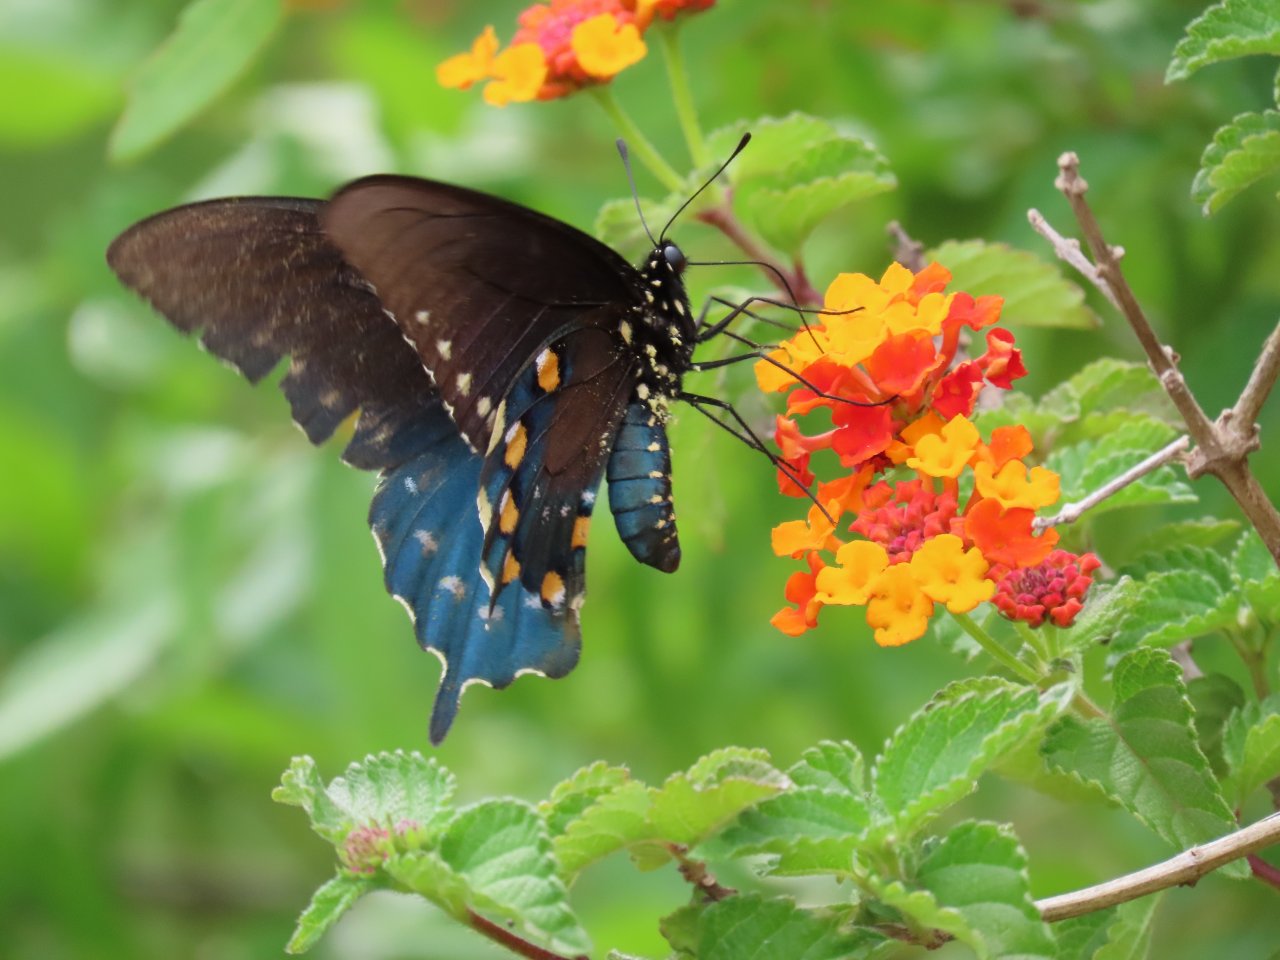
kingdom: Animalia
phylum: Arthropoda
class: Insecta
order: Lepidoptera
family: Papilionidae
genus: Battus
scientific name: Battus philenor
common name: Pipevine Swallowtail
